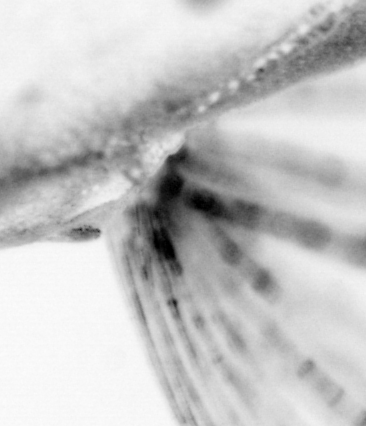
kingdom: Animalia
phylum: Chordata
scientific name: Chordata
